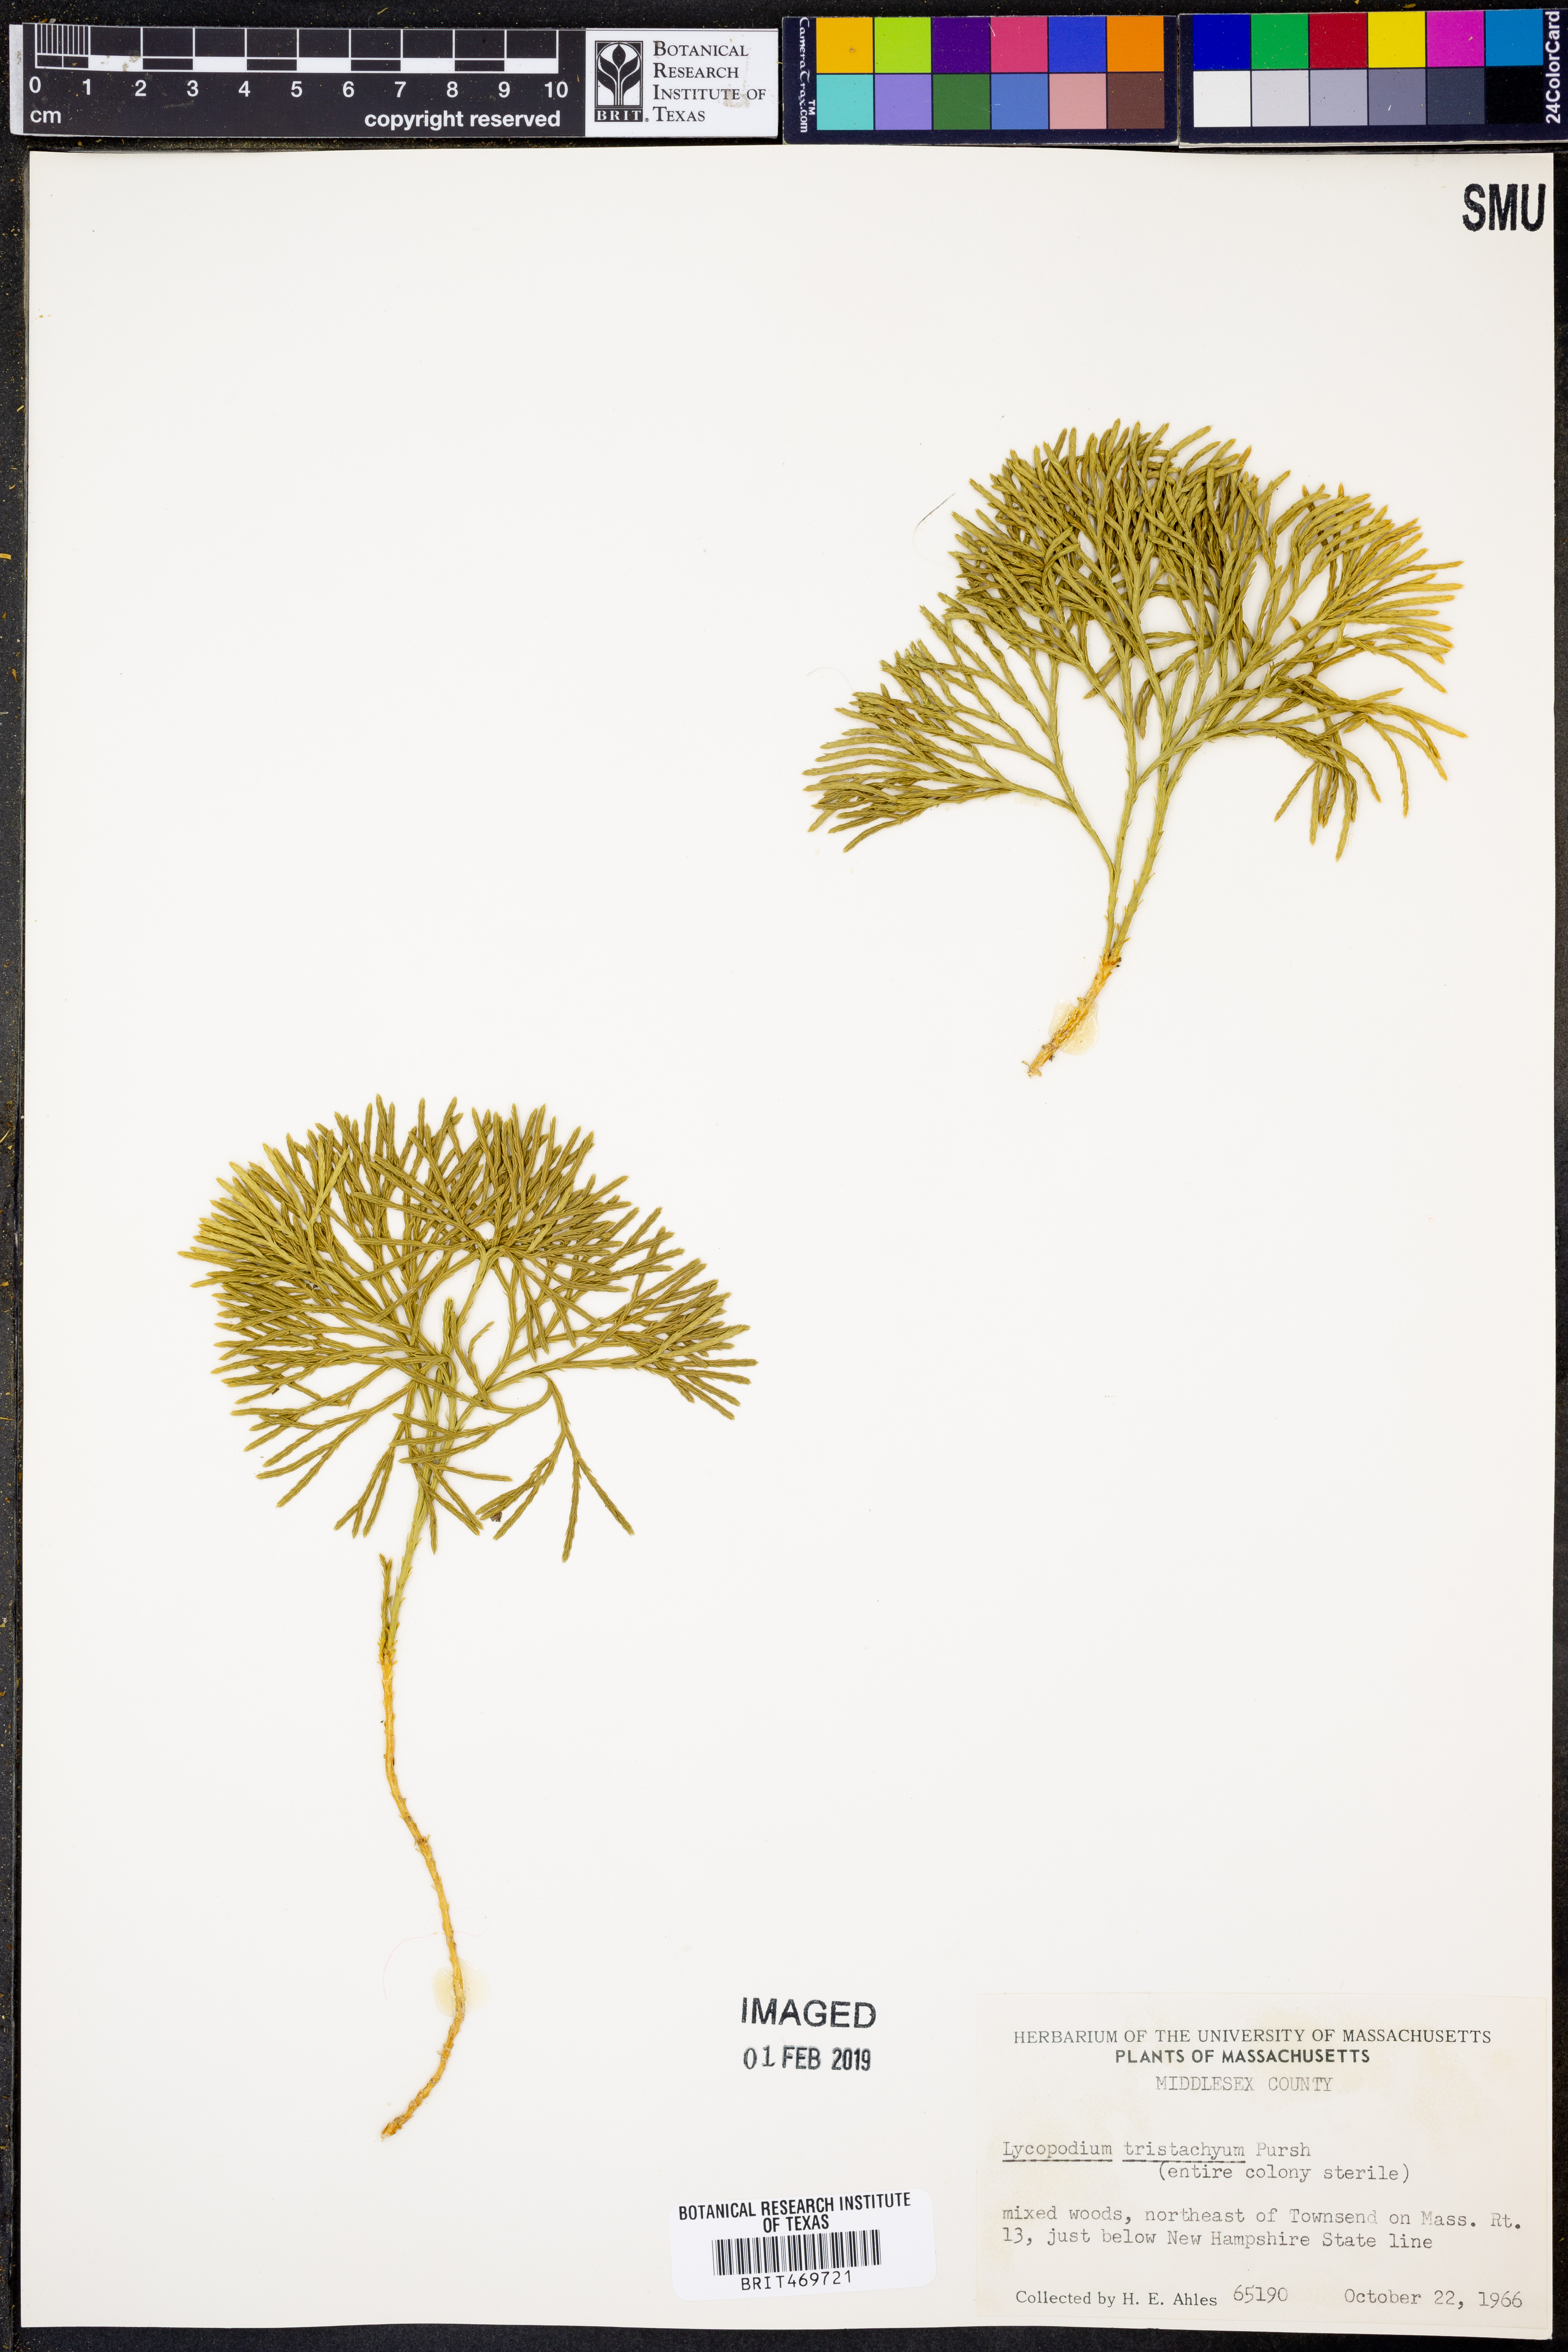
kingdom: Plantae
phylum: Tracheophyta
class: Lycopodiopsida
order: Lycopodiales
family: Lycopodiaceae
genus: Diphasiastrum
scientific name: Diphasiastrum tristachyum
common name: Blue ground-cedar
